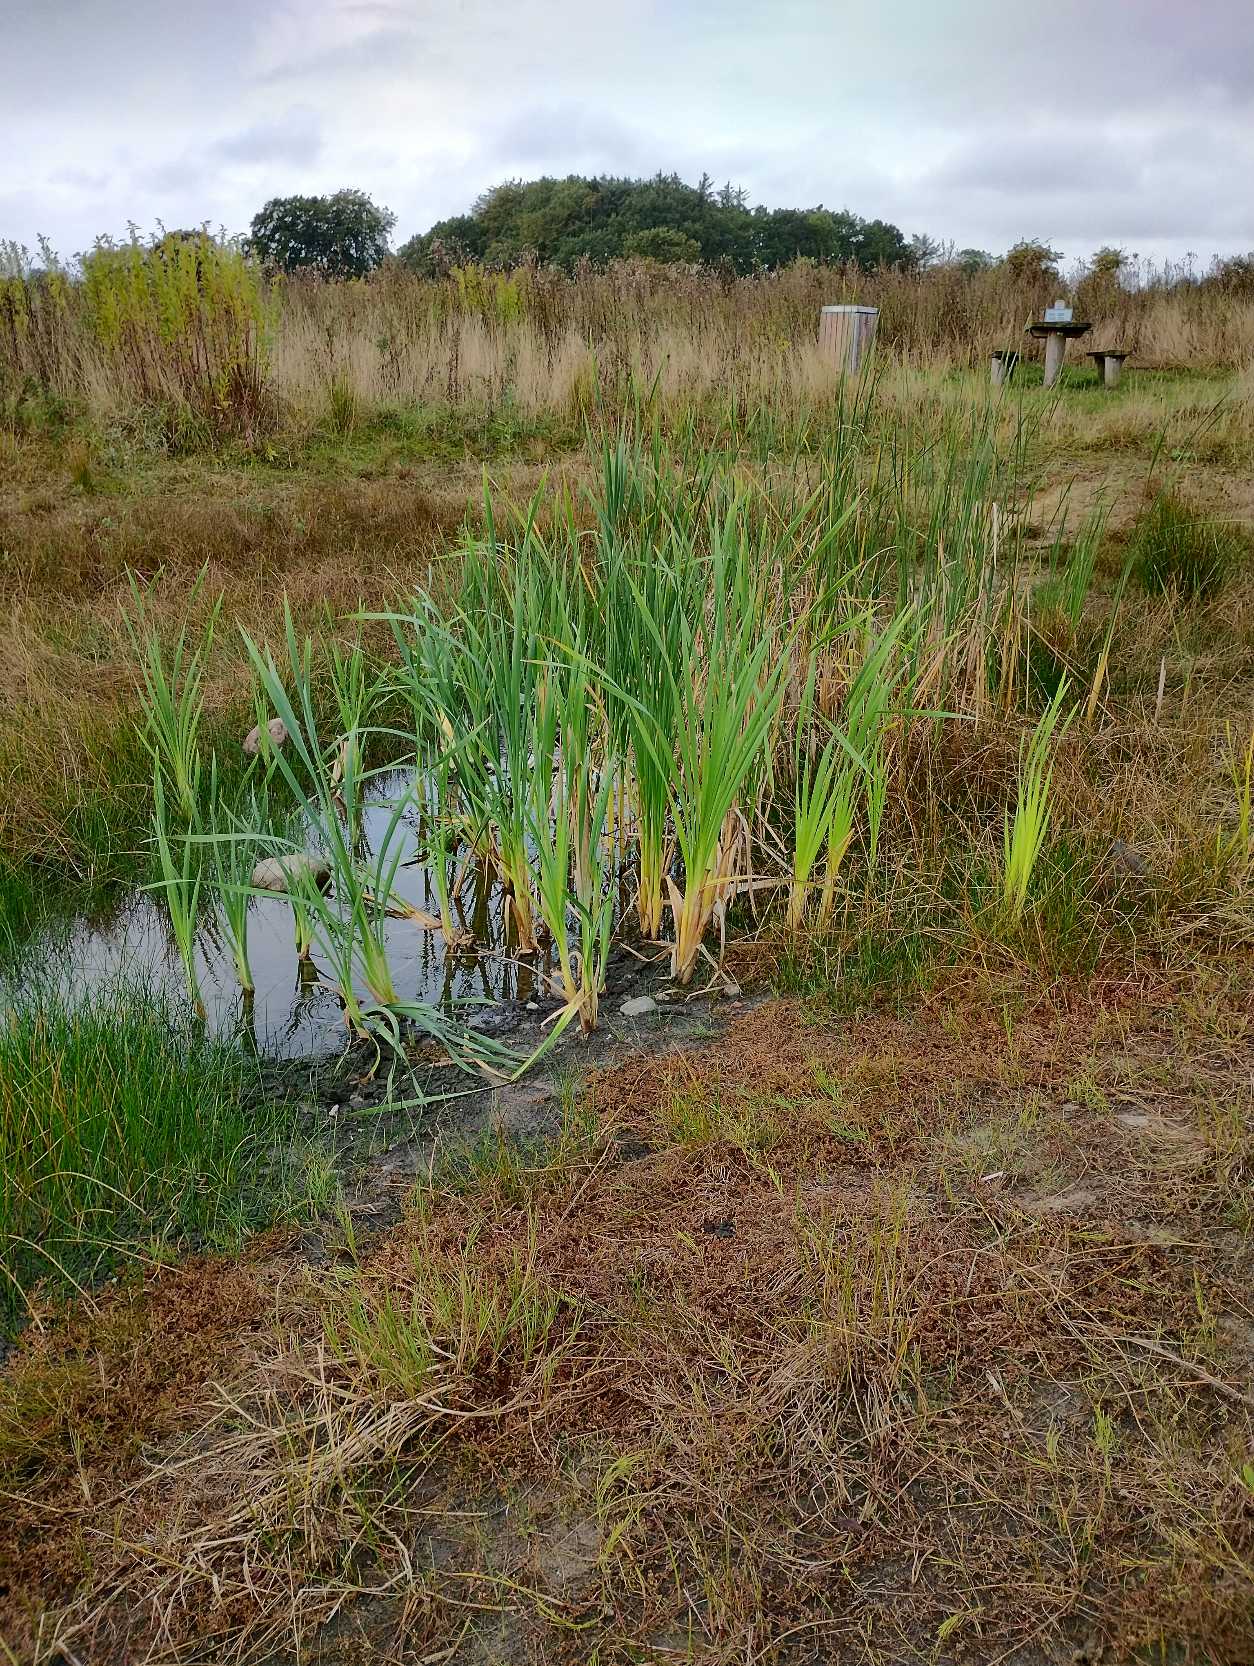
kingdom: Plantae
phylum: Tracheophyta
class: Liliopsida
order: Poales
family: Typhaceae
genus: Typha
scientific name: Typha latifolia
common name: Bredbladet dunhammer
